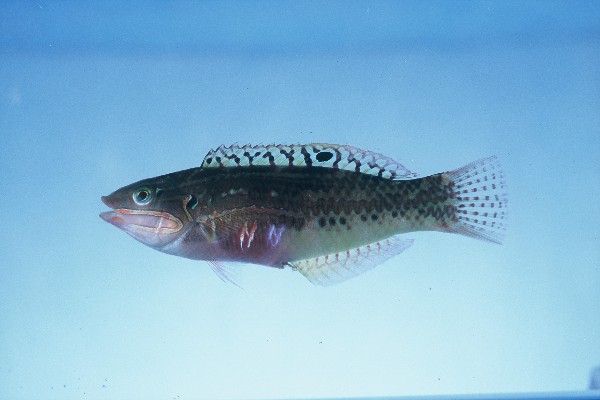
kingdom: Animalia
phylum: Chordata
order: Perciformes
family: Labridae
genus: Halichoeres
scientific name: Halichoeres nebulosus
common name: Clouded wrasse
